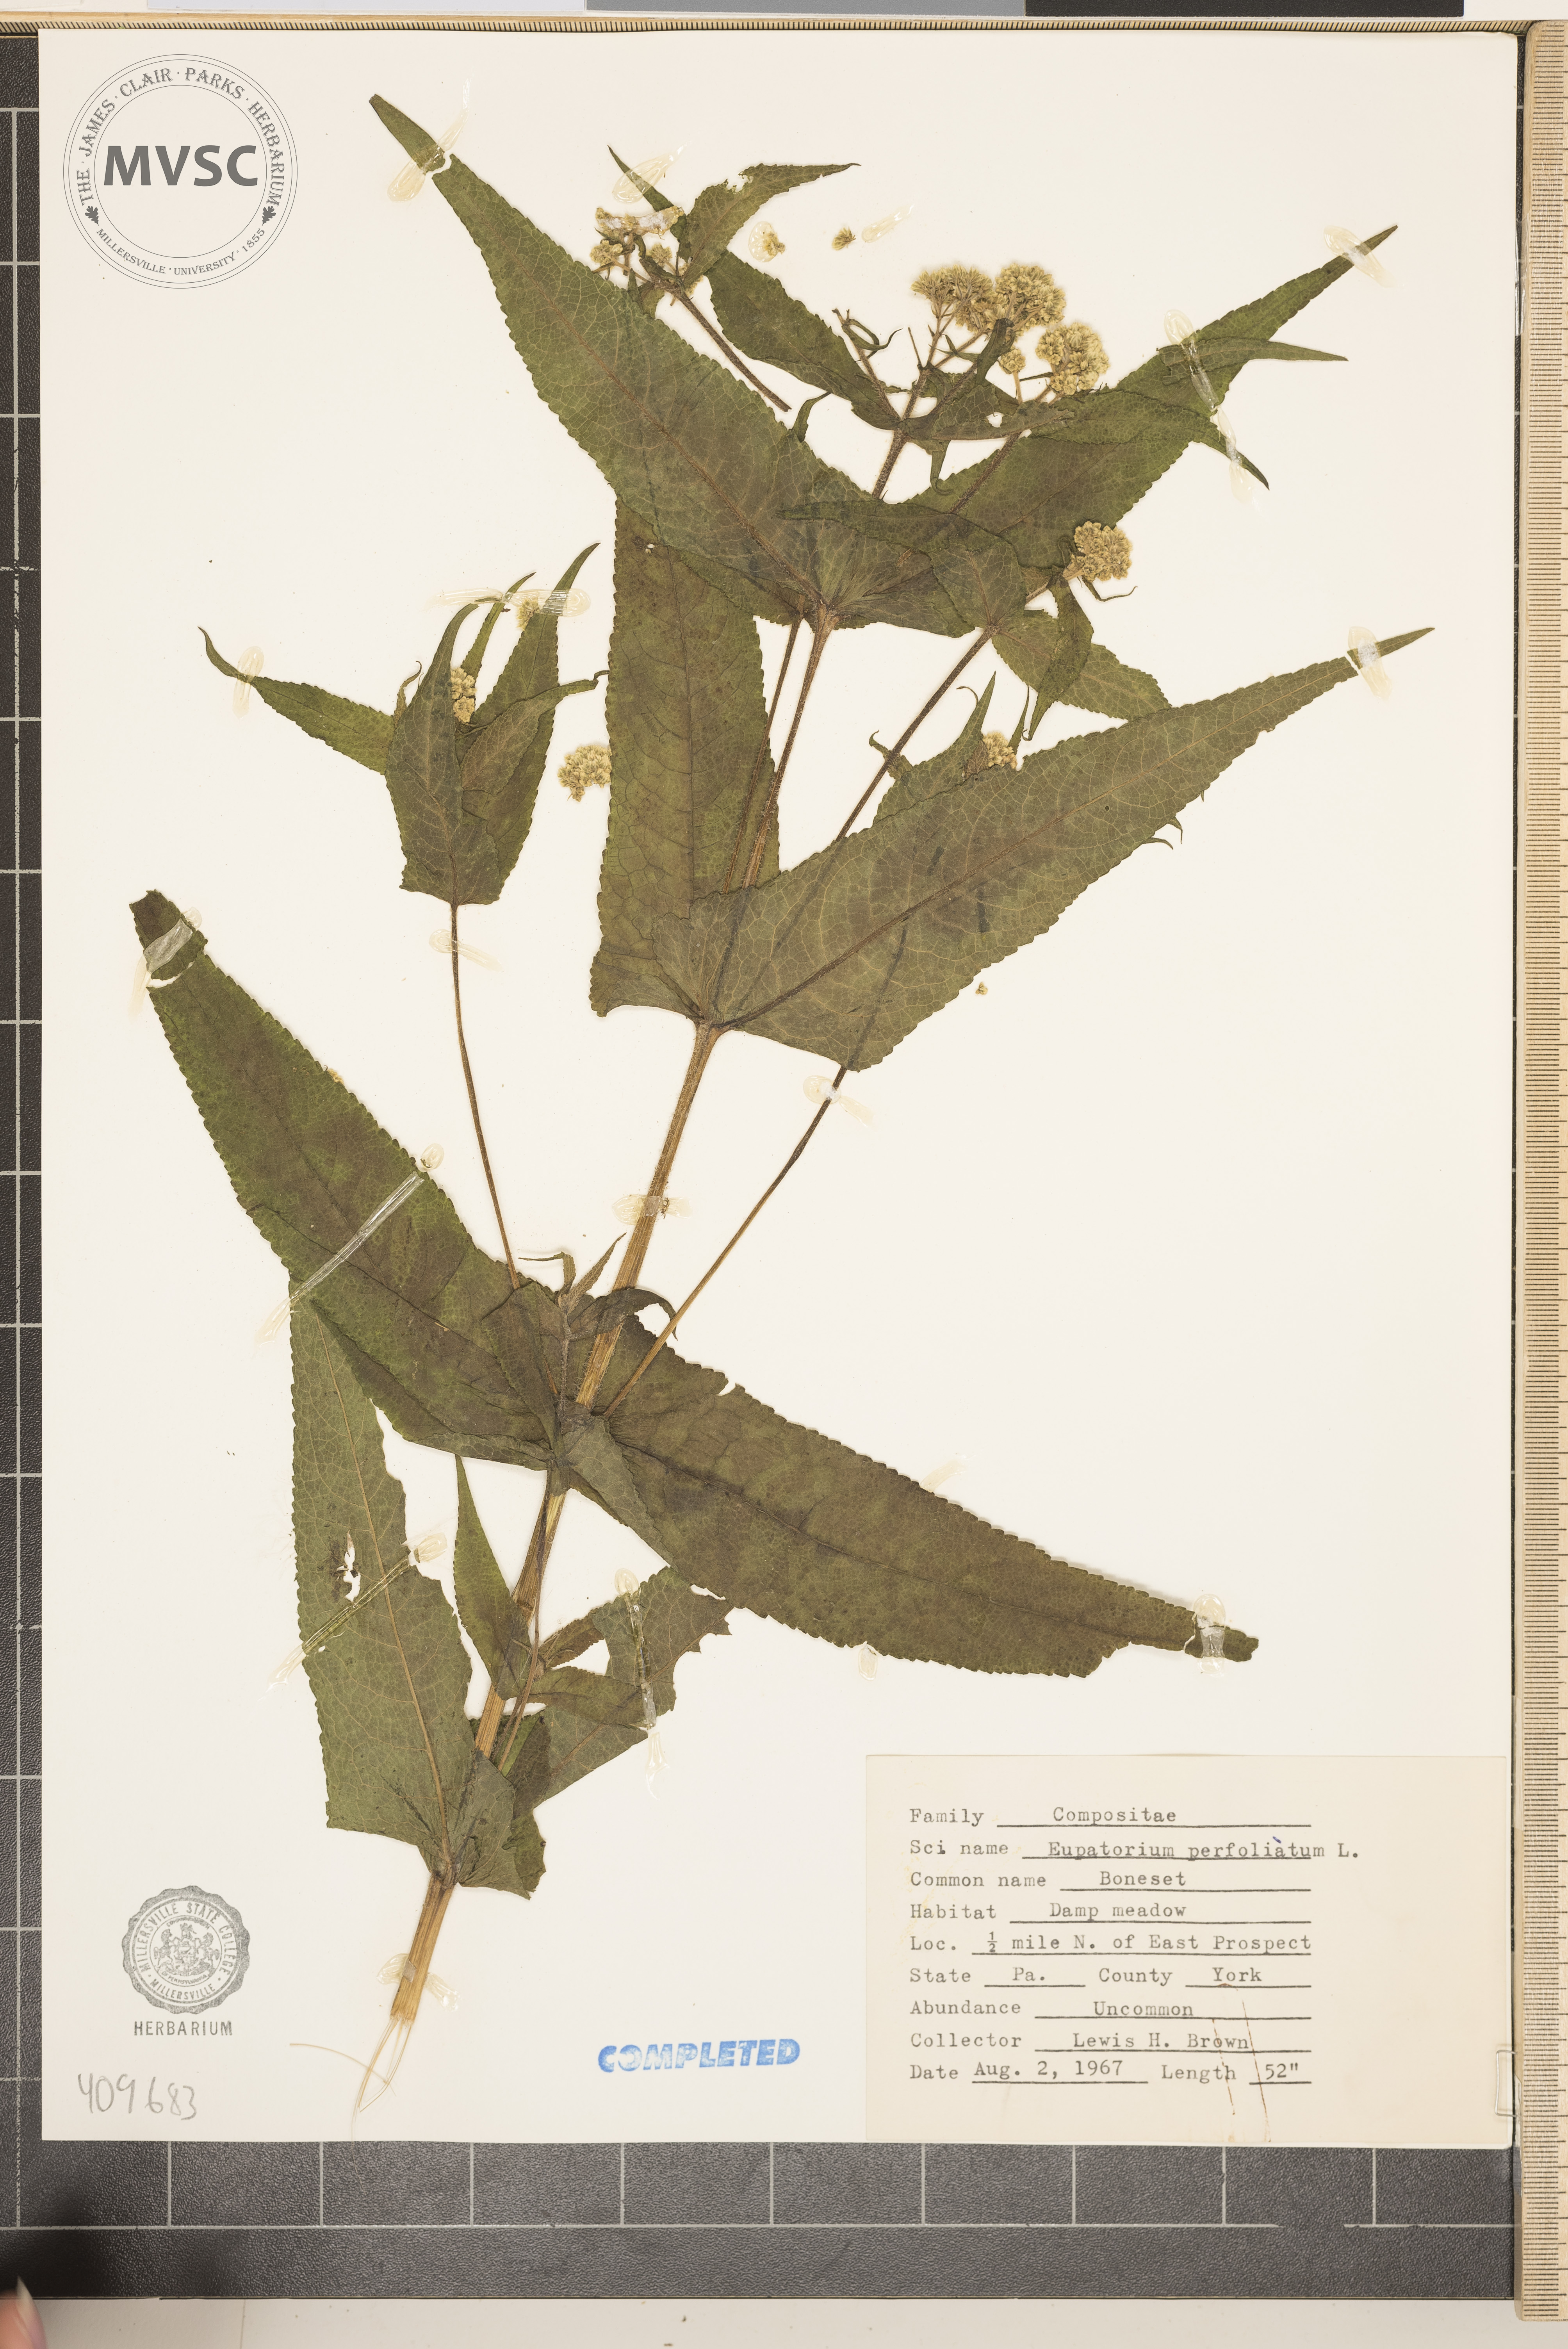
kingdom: Plantae
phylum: Tracheophyta
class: Magnoliopsida
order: Asterales
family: Asteraceae
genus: Eupatorium
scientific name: Eupatorium perfoliatum
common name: Boneset
